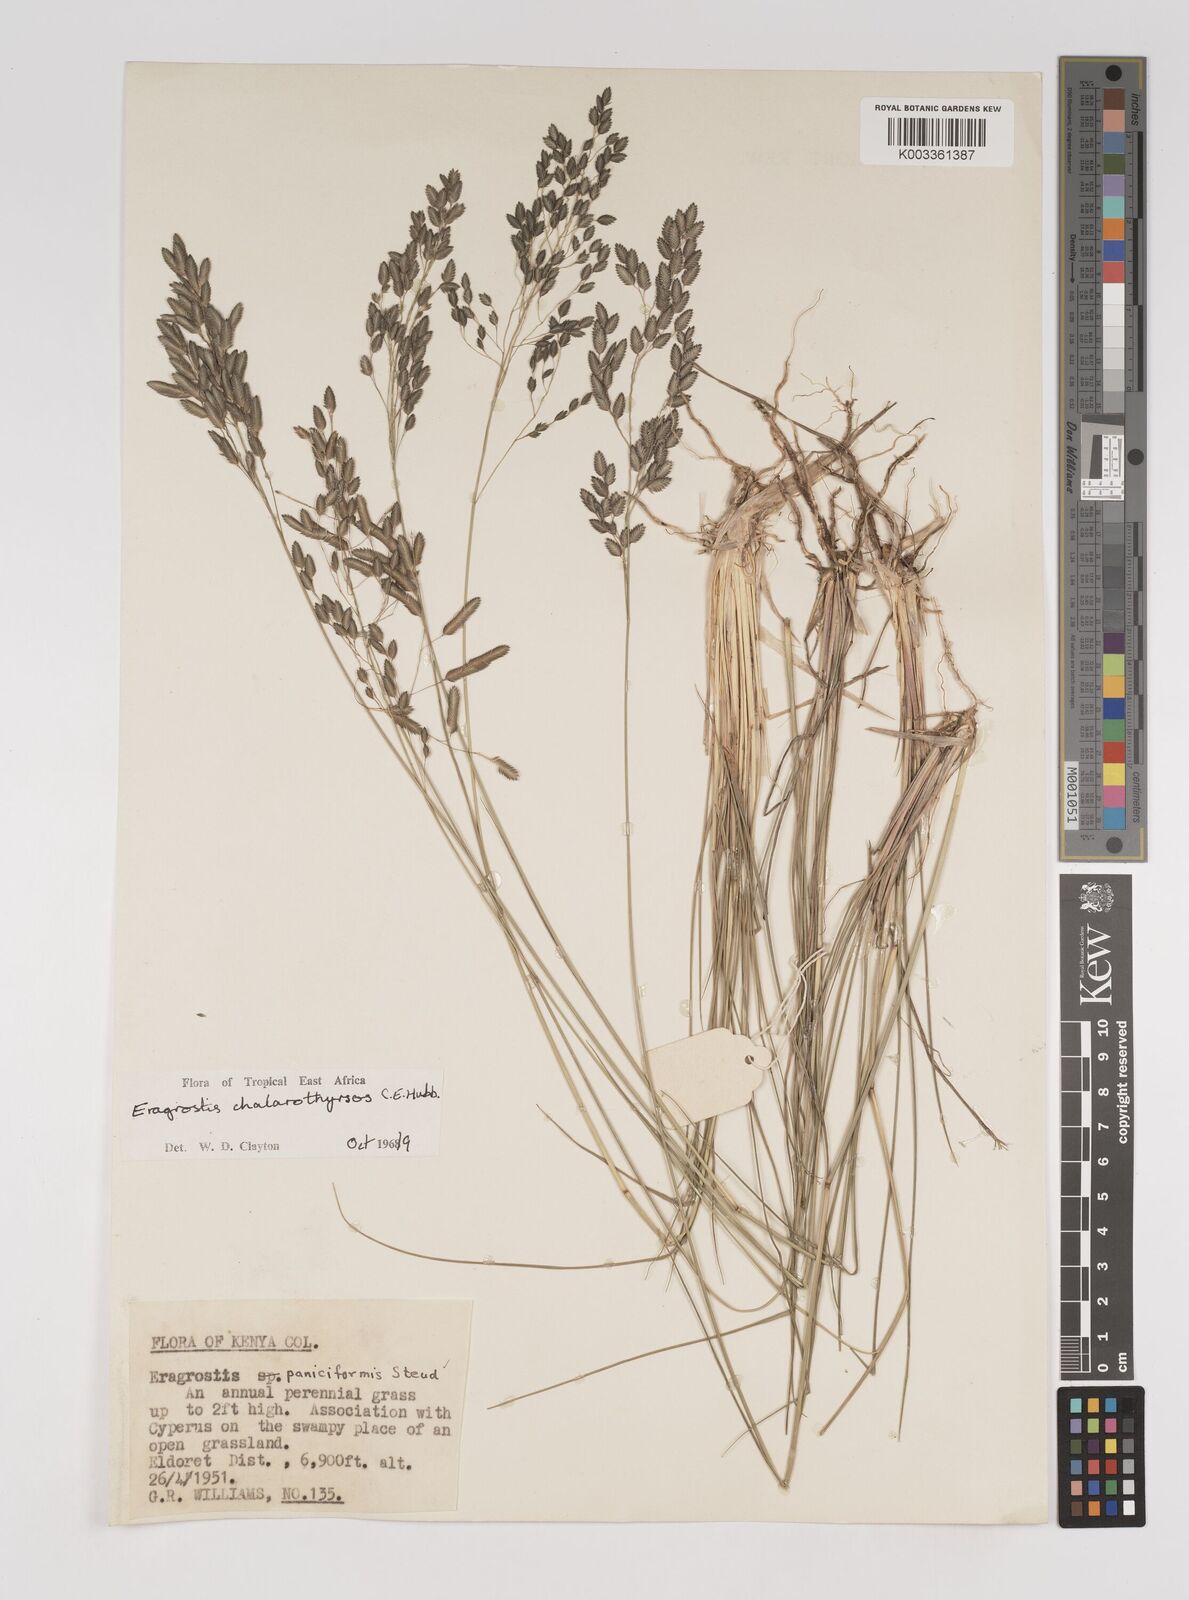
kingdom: Plantae
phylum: Tracheophyta
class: Liliopsida
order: Poales
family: Poaceae
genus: Eragrostis
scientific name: Eragrostis chalarothyrsos
